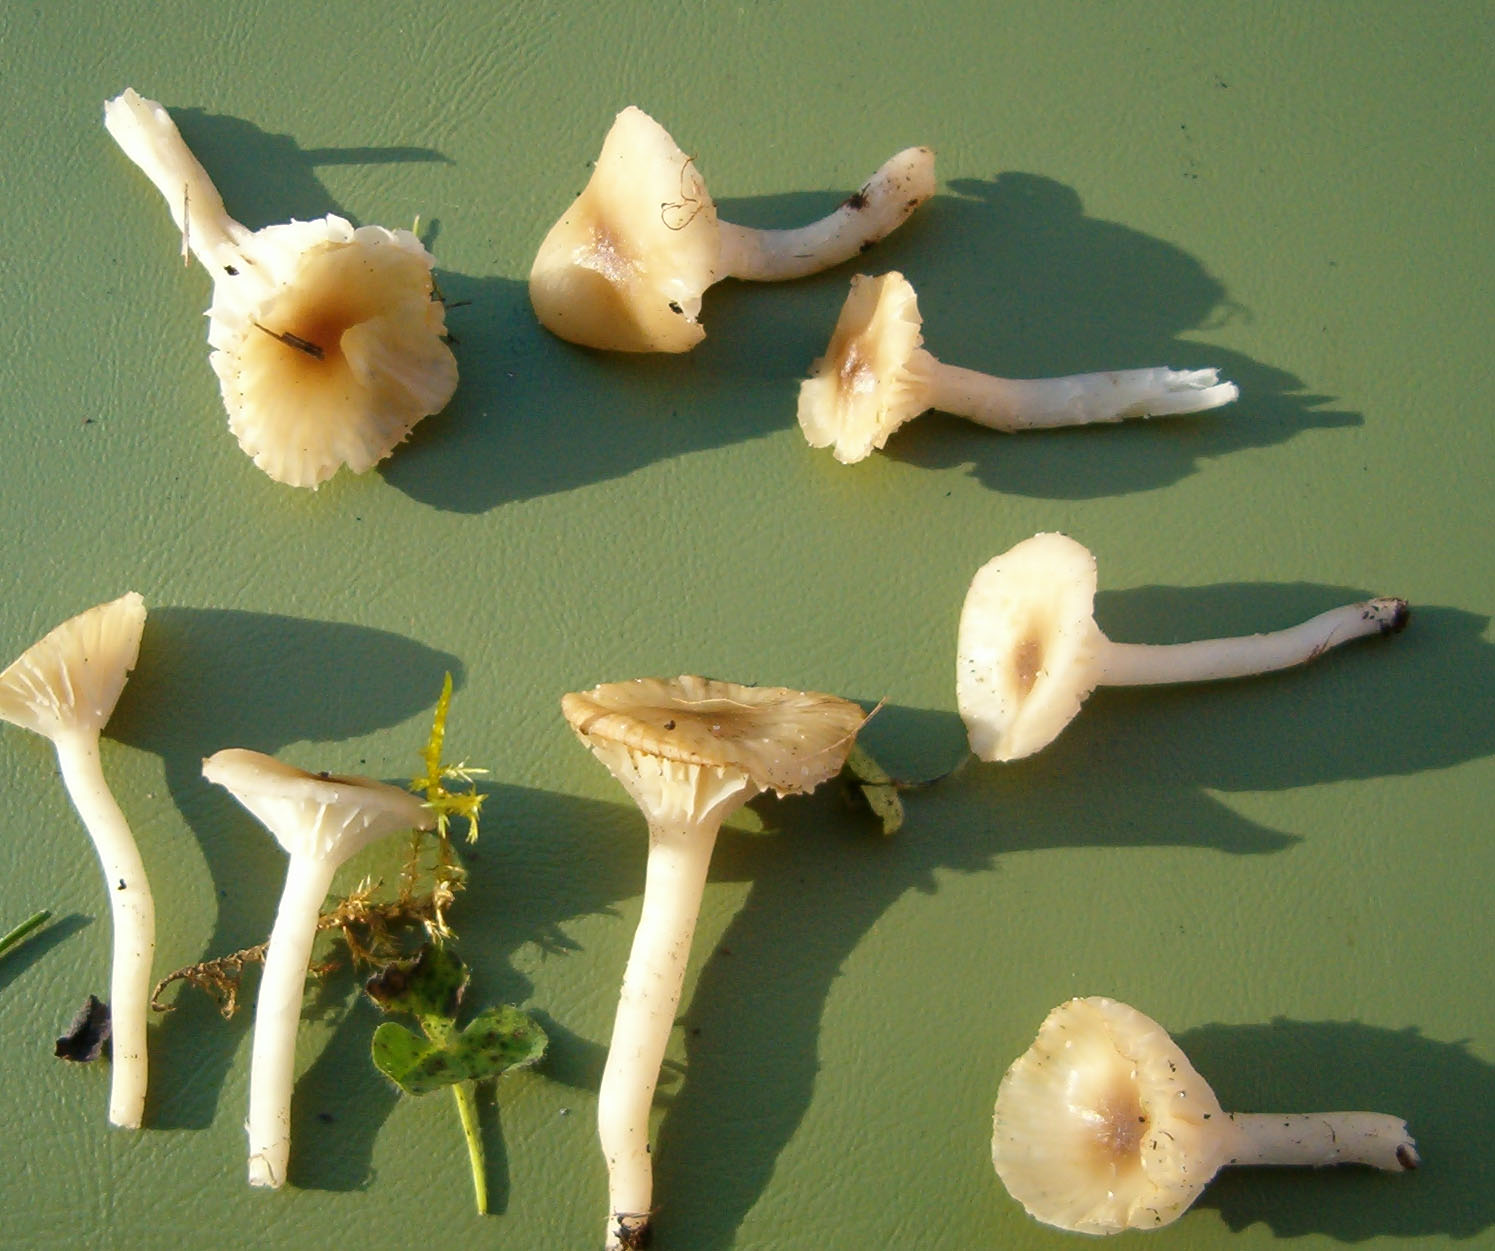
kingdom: Fungi
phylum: Basidiomycota
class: Agaricomycetes
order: Agaricales
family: Hygrophoraceae
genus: Cuphophyllus
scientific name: Cuphophyllus virgineus
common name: brunøjet vokshat
